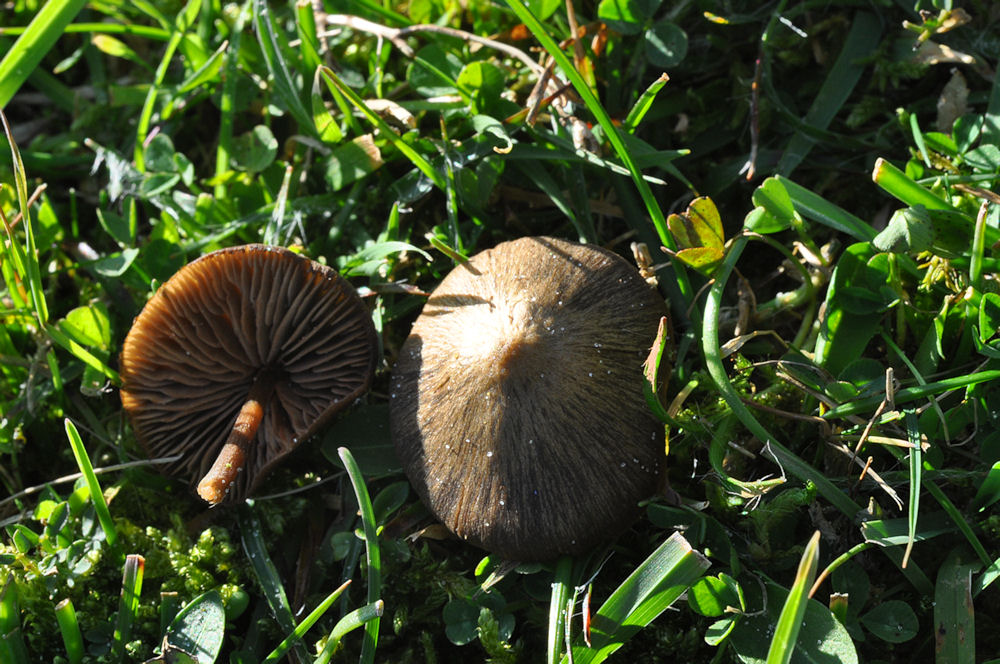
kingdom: Fungi
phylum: Basidiomycota
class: Agaricomycetes
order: Agaricales
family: Entolomataceae
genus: Entoloma
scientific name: Entoloma clandestinum
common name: tykbladet rødblad
